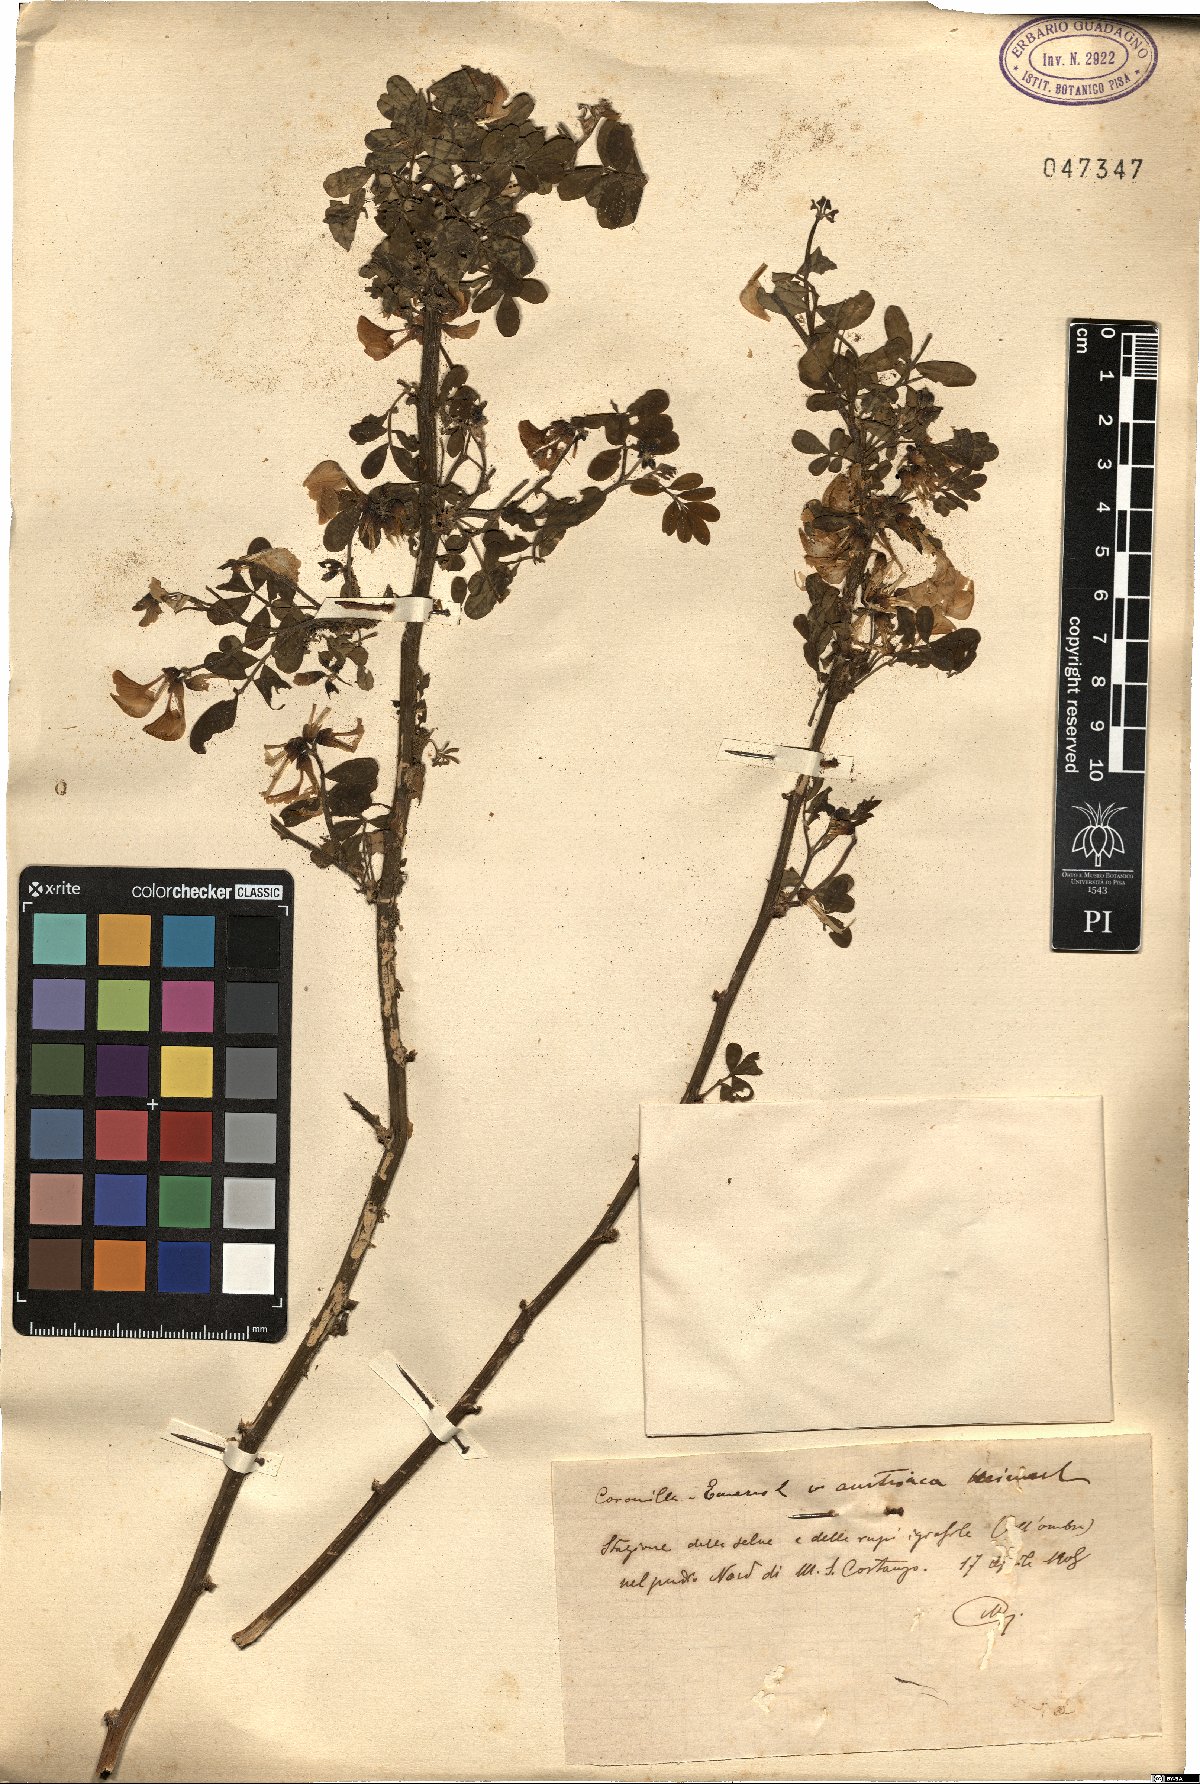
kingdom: Plantae
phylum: Tracheophyta
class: Magnoliopsida
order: Fabales
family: Fabaceae
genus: Hippocrepis
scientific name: Hippocrepis emerus
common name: Scorpion senna
